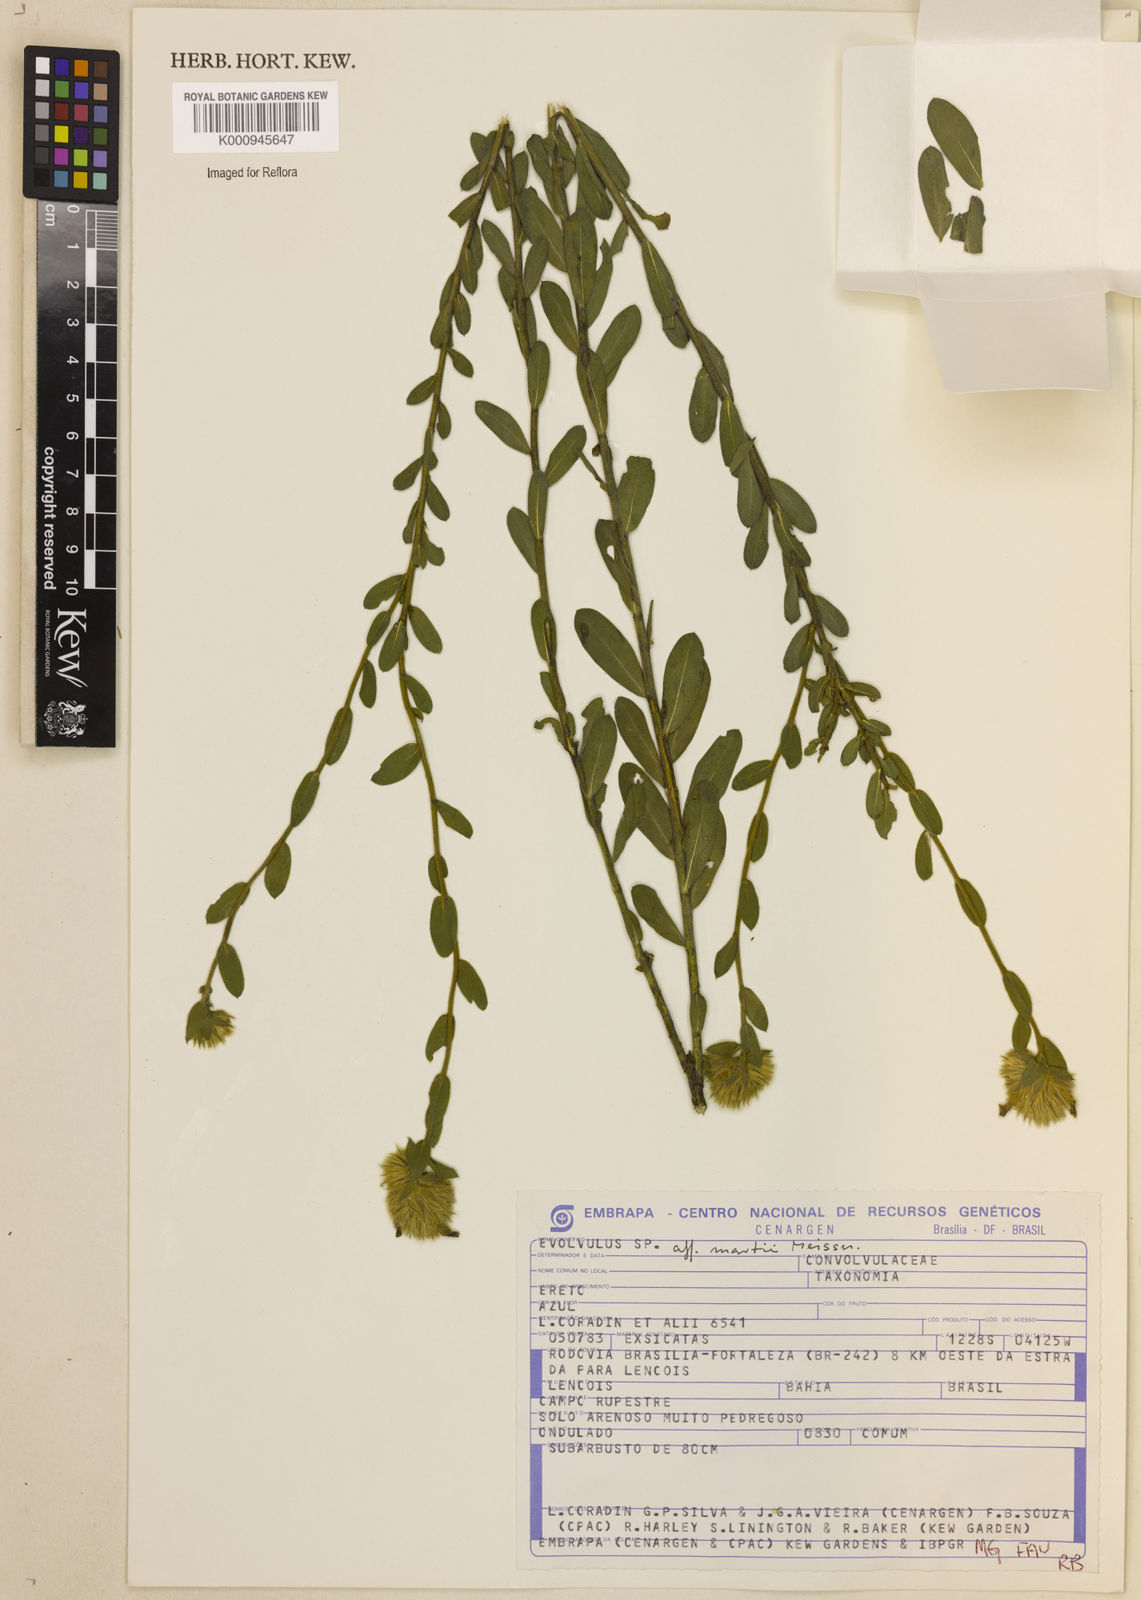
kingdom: Plantae
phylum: Tracheophyta
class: Magnoliopsida
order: Solanales
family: Convolvulaceae
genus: Evolvulus
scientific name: Evolvulus
